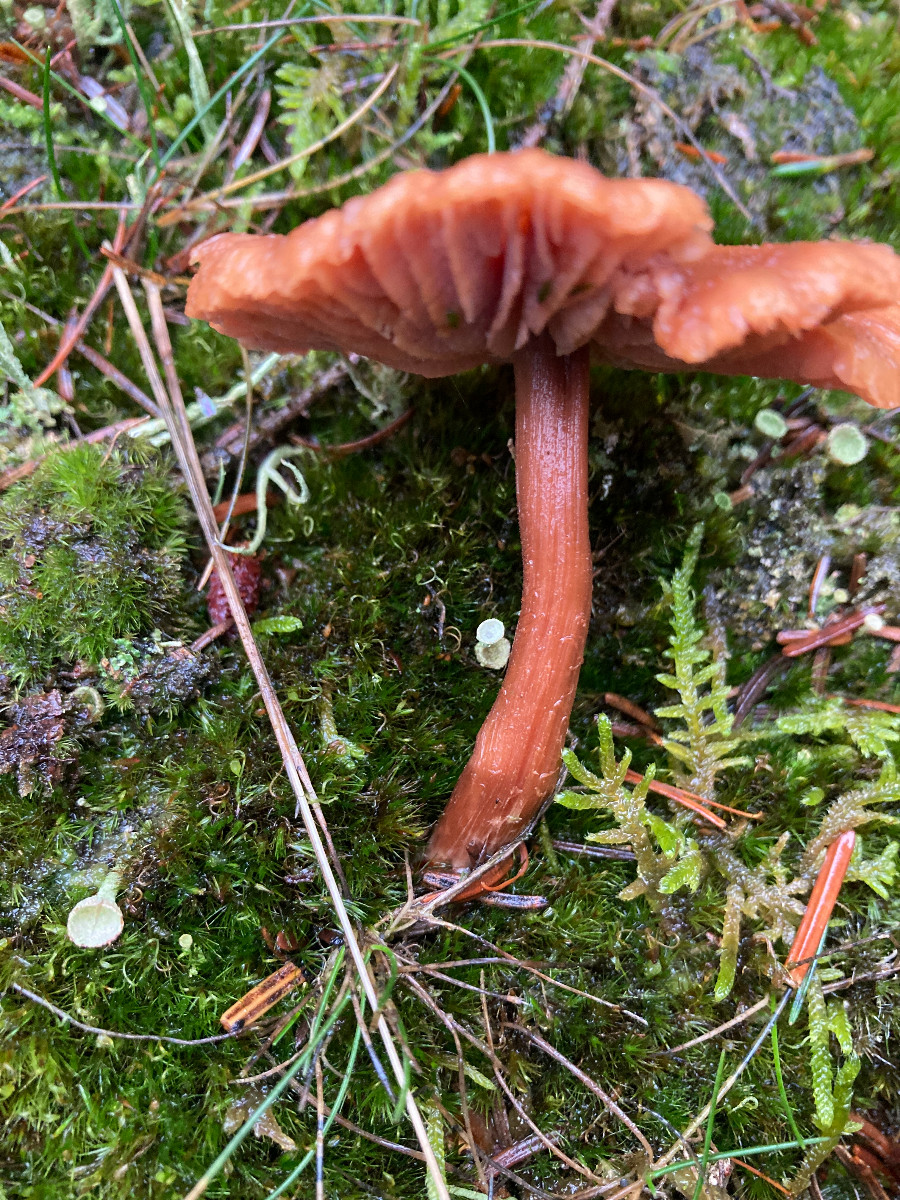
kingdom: Fungi
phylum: Basidiomycota
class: Agaricomycetes
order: Agaricales
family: Hydnangiaceae
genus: Laccaria
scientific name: Laccaria bicolor
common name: tvefarvet ametysthat
